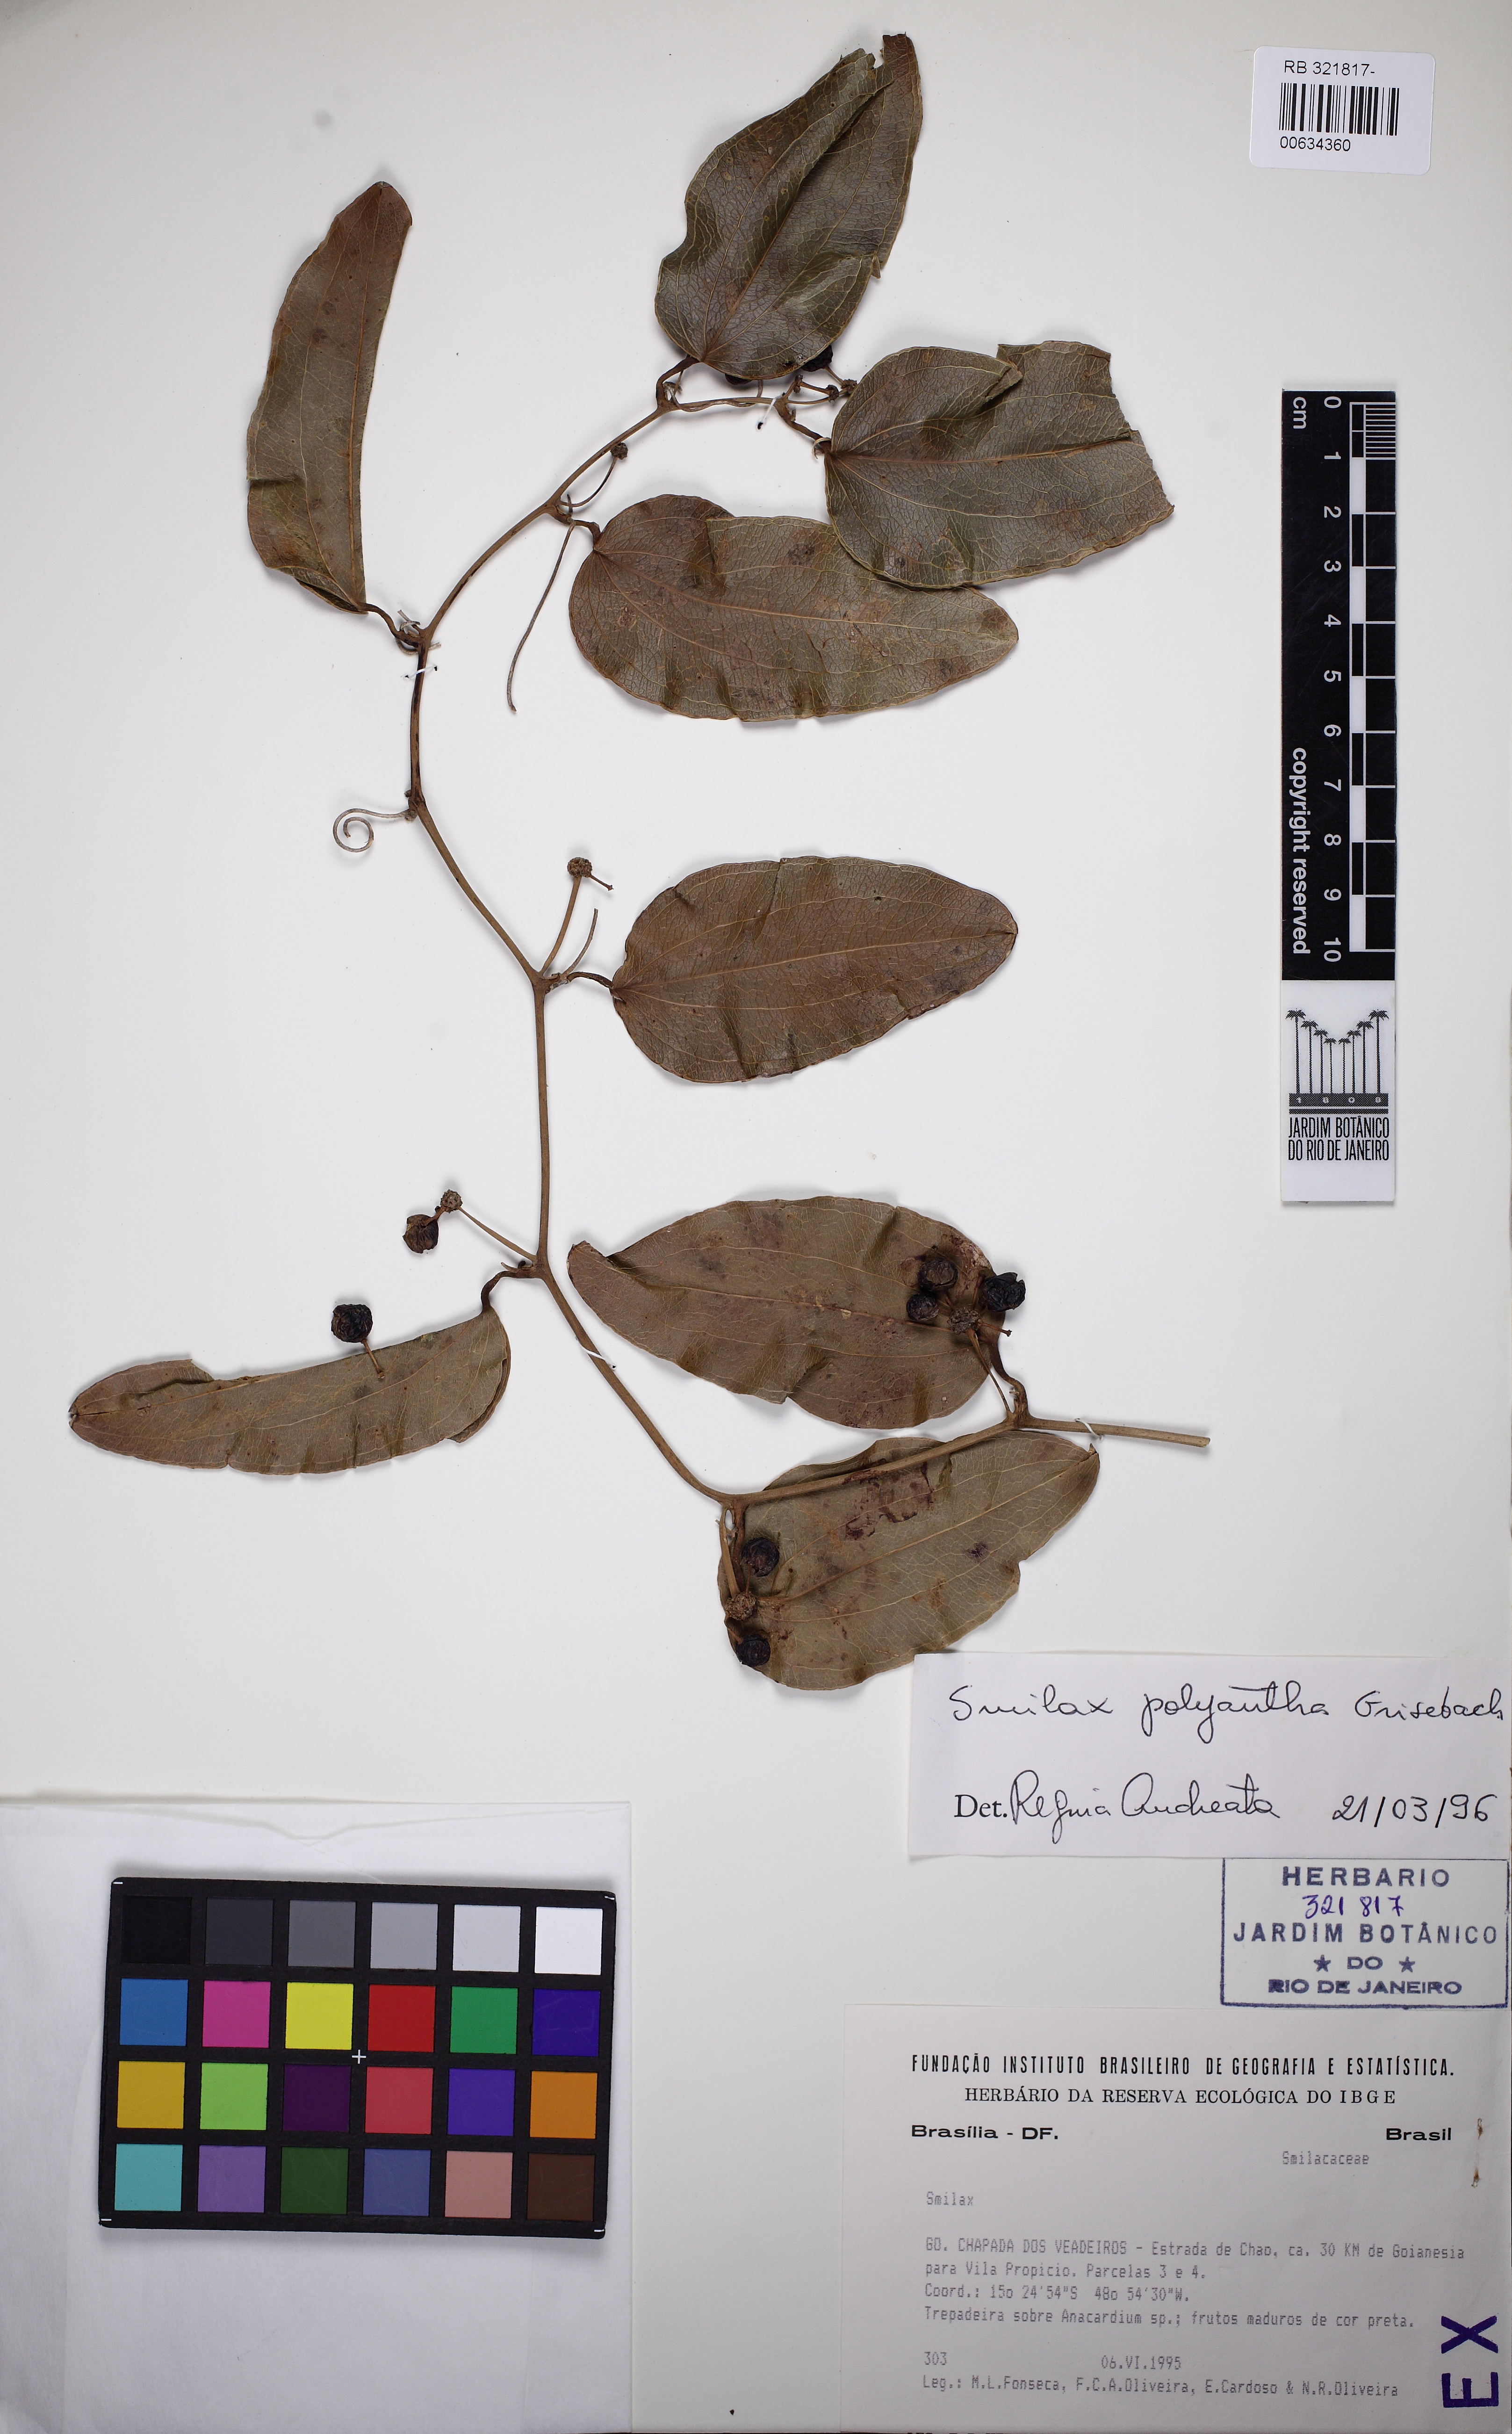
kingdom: Plantae
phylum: Tracheophyta
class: Liliopsida
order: Liliales
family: Smilacaceae
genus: Smilax
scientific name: Smilax polyantha
